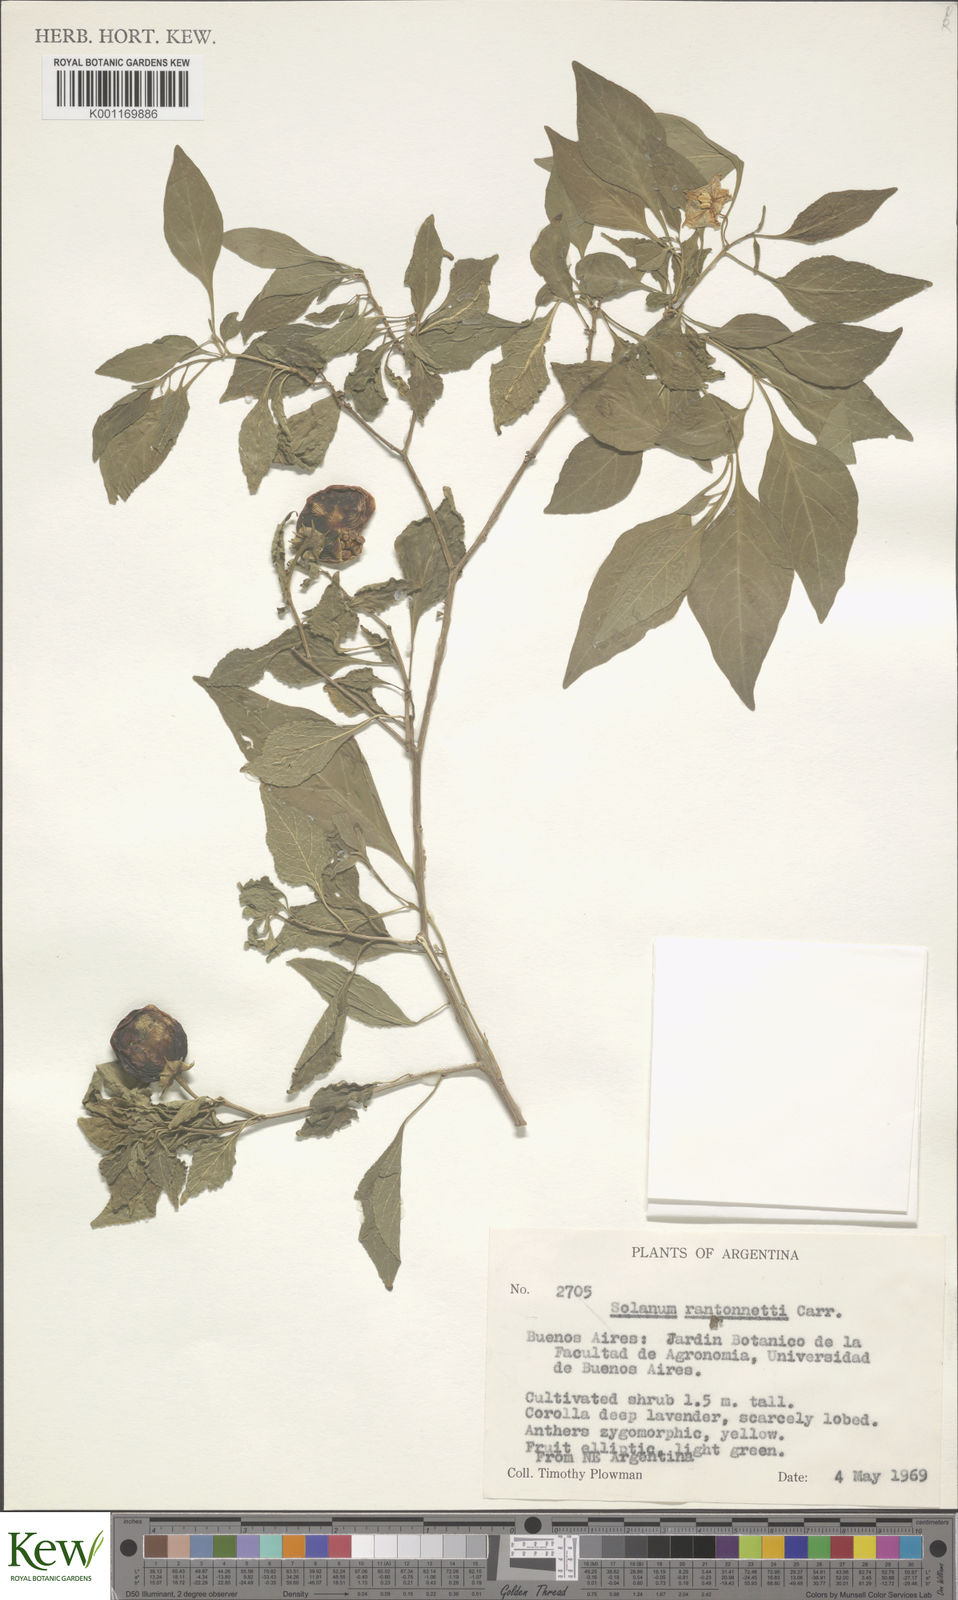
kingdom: Plantae
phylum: Tracheophyta
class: Magnoliopsida
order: Solanales
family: Solanaceae
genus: Solanum
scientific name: Solanum
